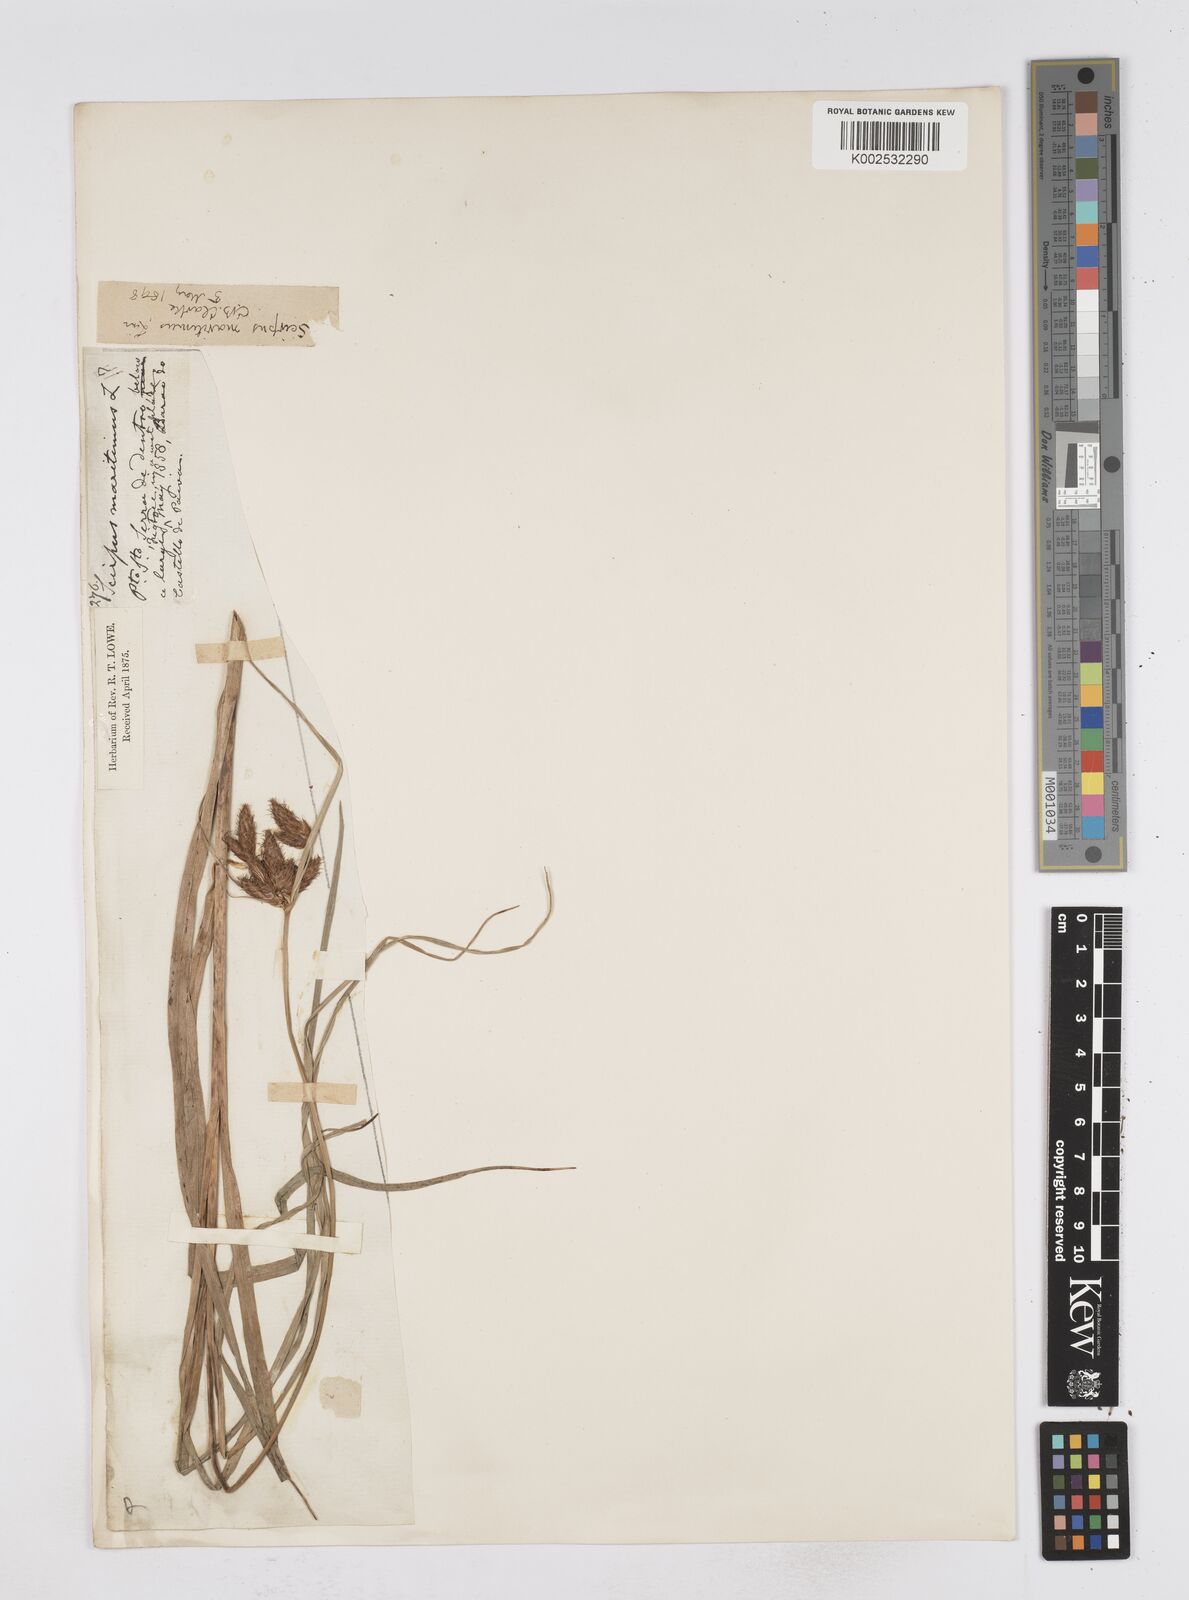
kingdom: Plantae
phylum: Tracheophyta
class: Liliopsida
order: Poales
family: Cyperaceae
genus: Bolboschoenus
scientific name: Bolboschoenus maritimus
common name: Sea club-rush
